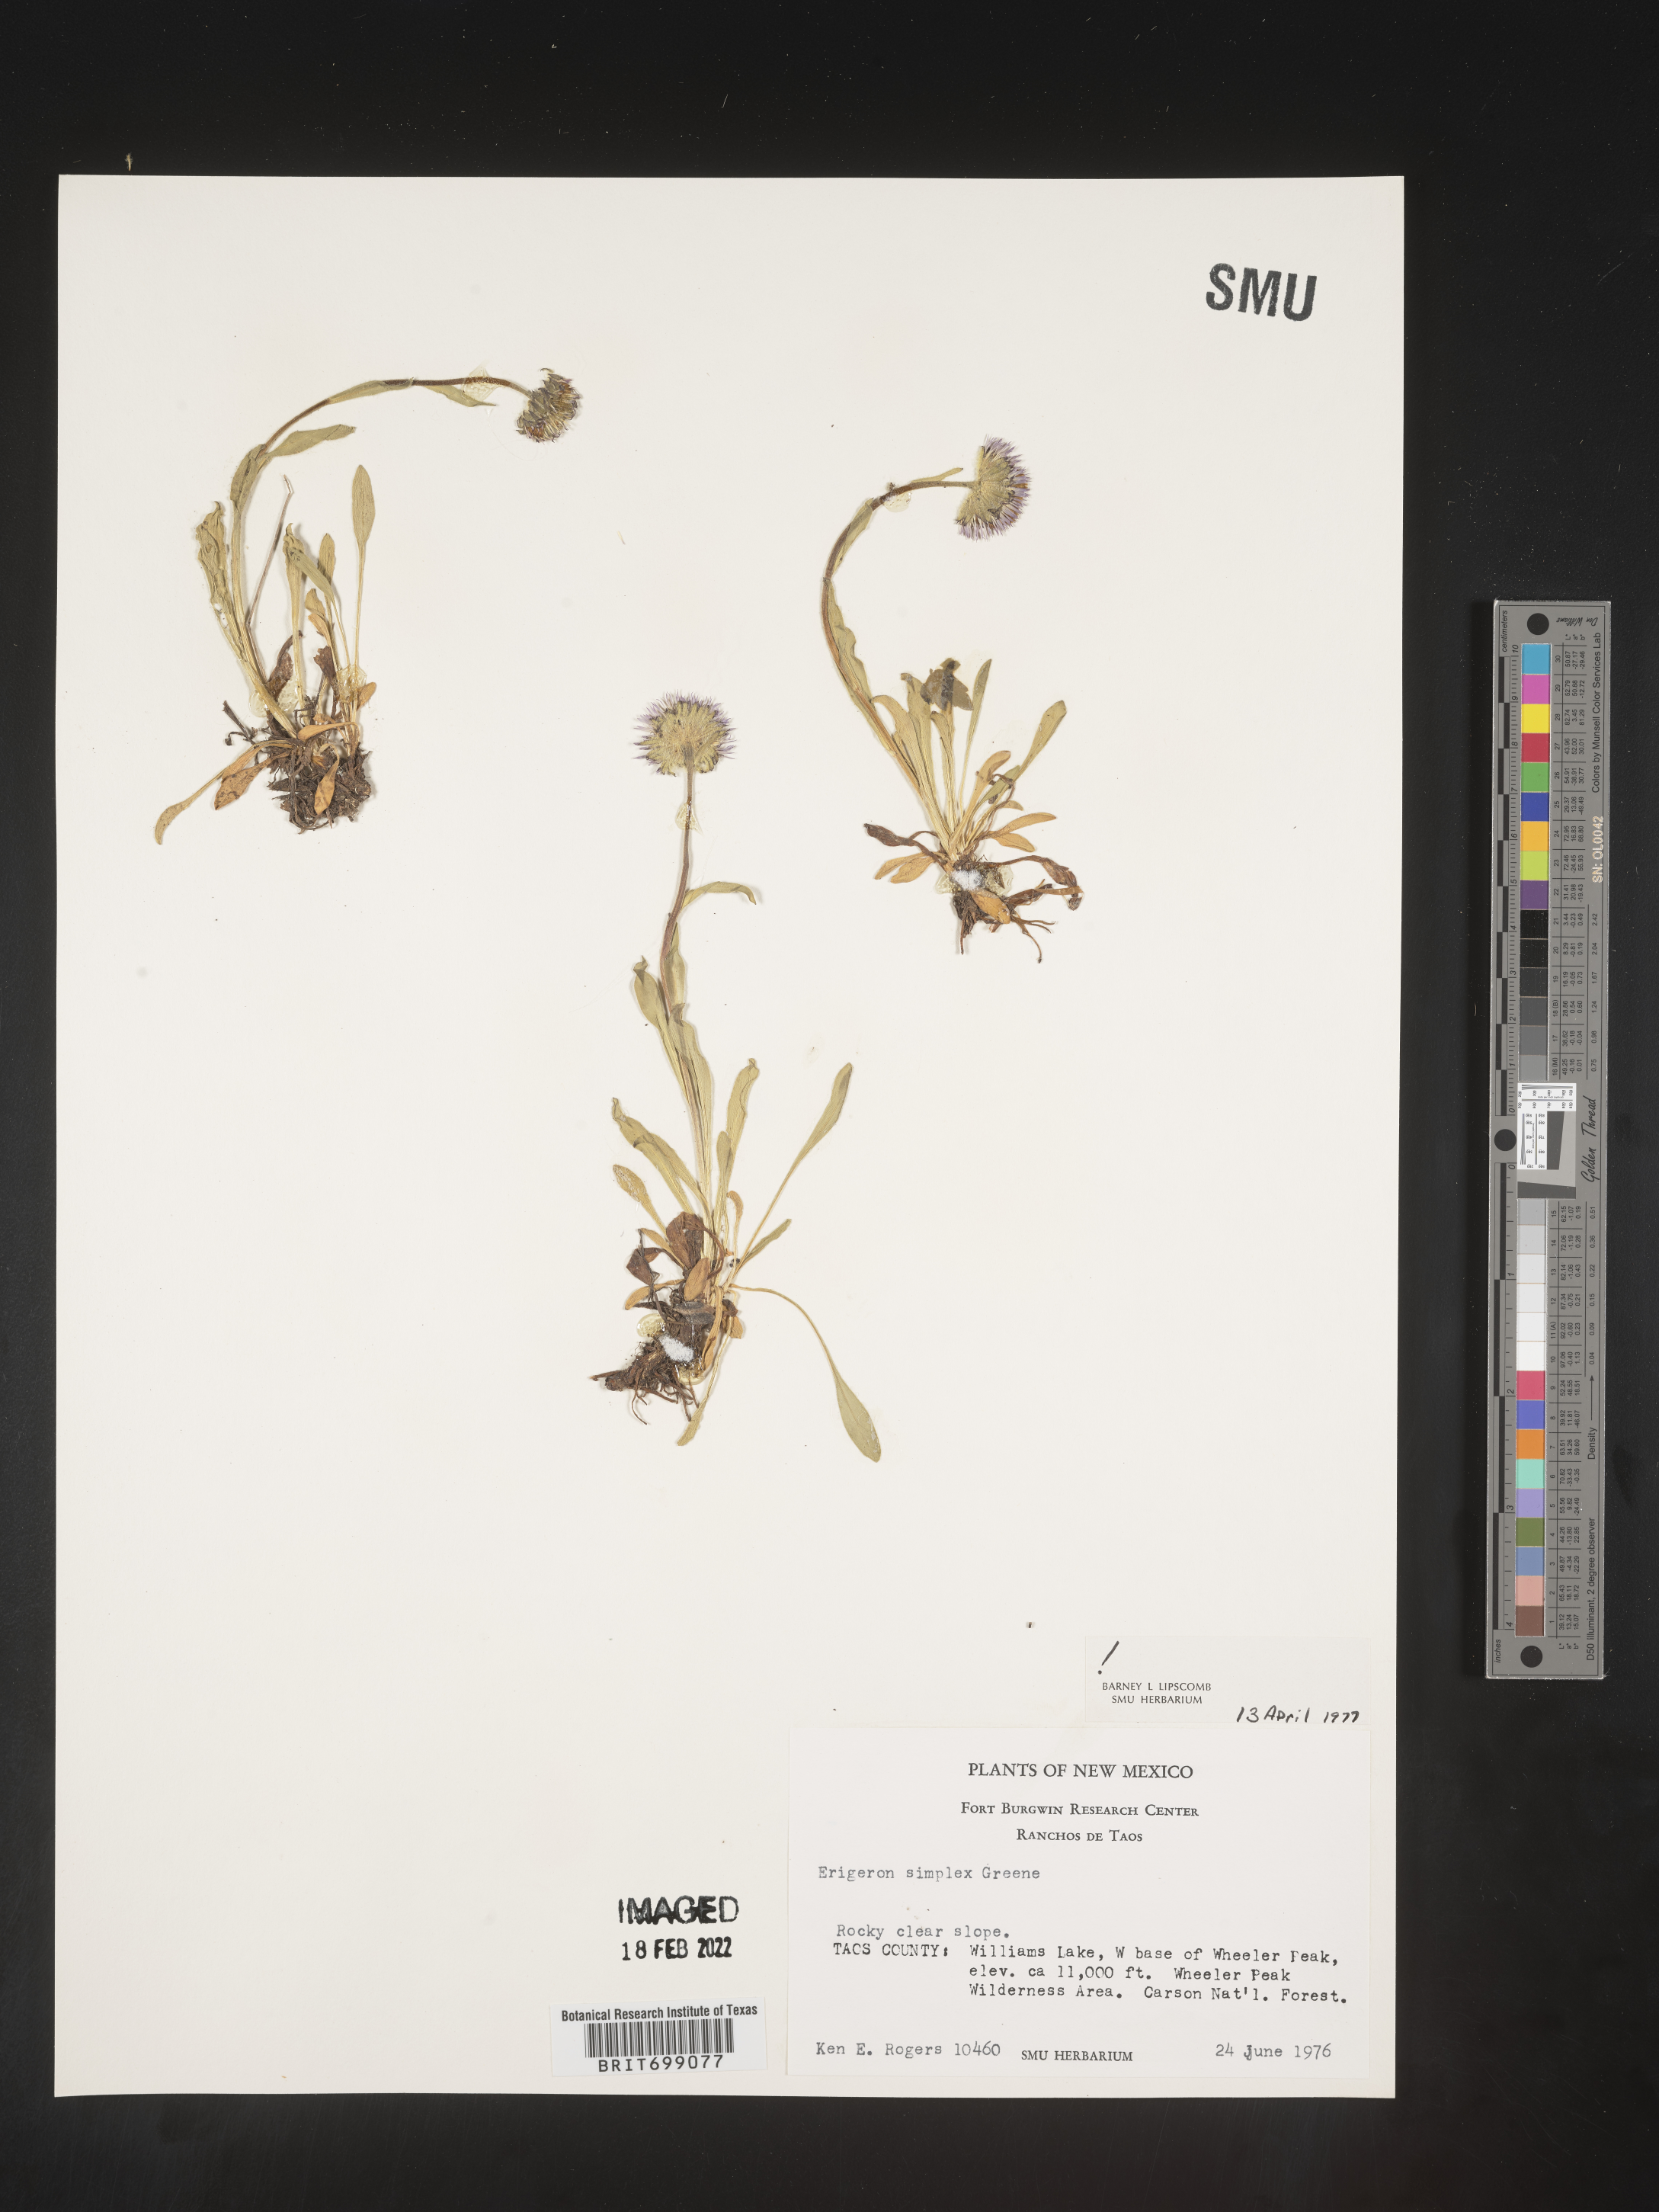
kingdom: Plantae
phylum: Tracheophyta
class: Magnoliopsida
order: Asterales
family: Asteraceae
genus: Erigeron
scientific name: Erigeron caucasicus
